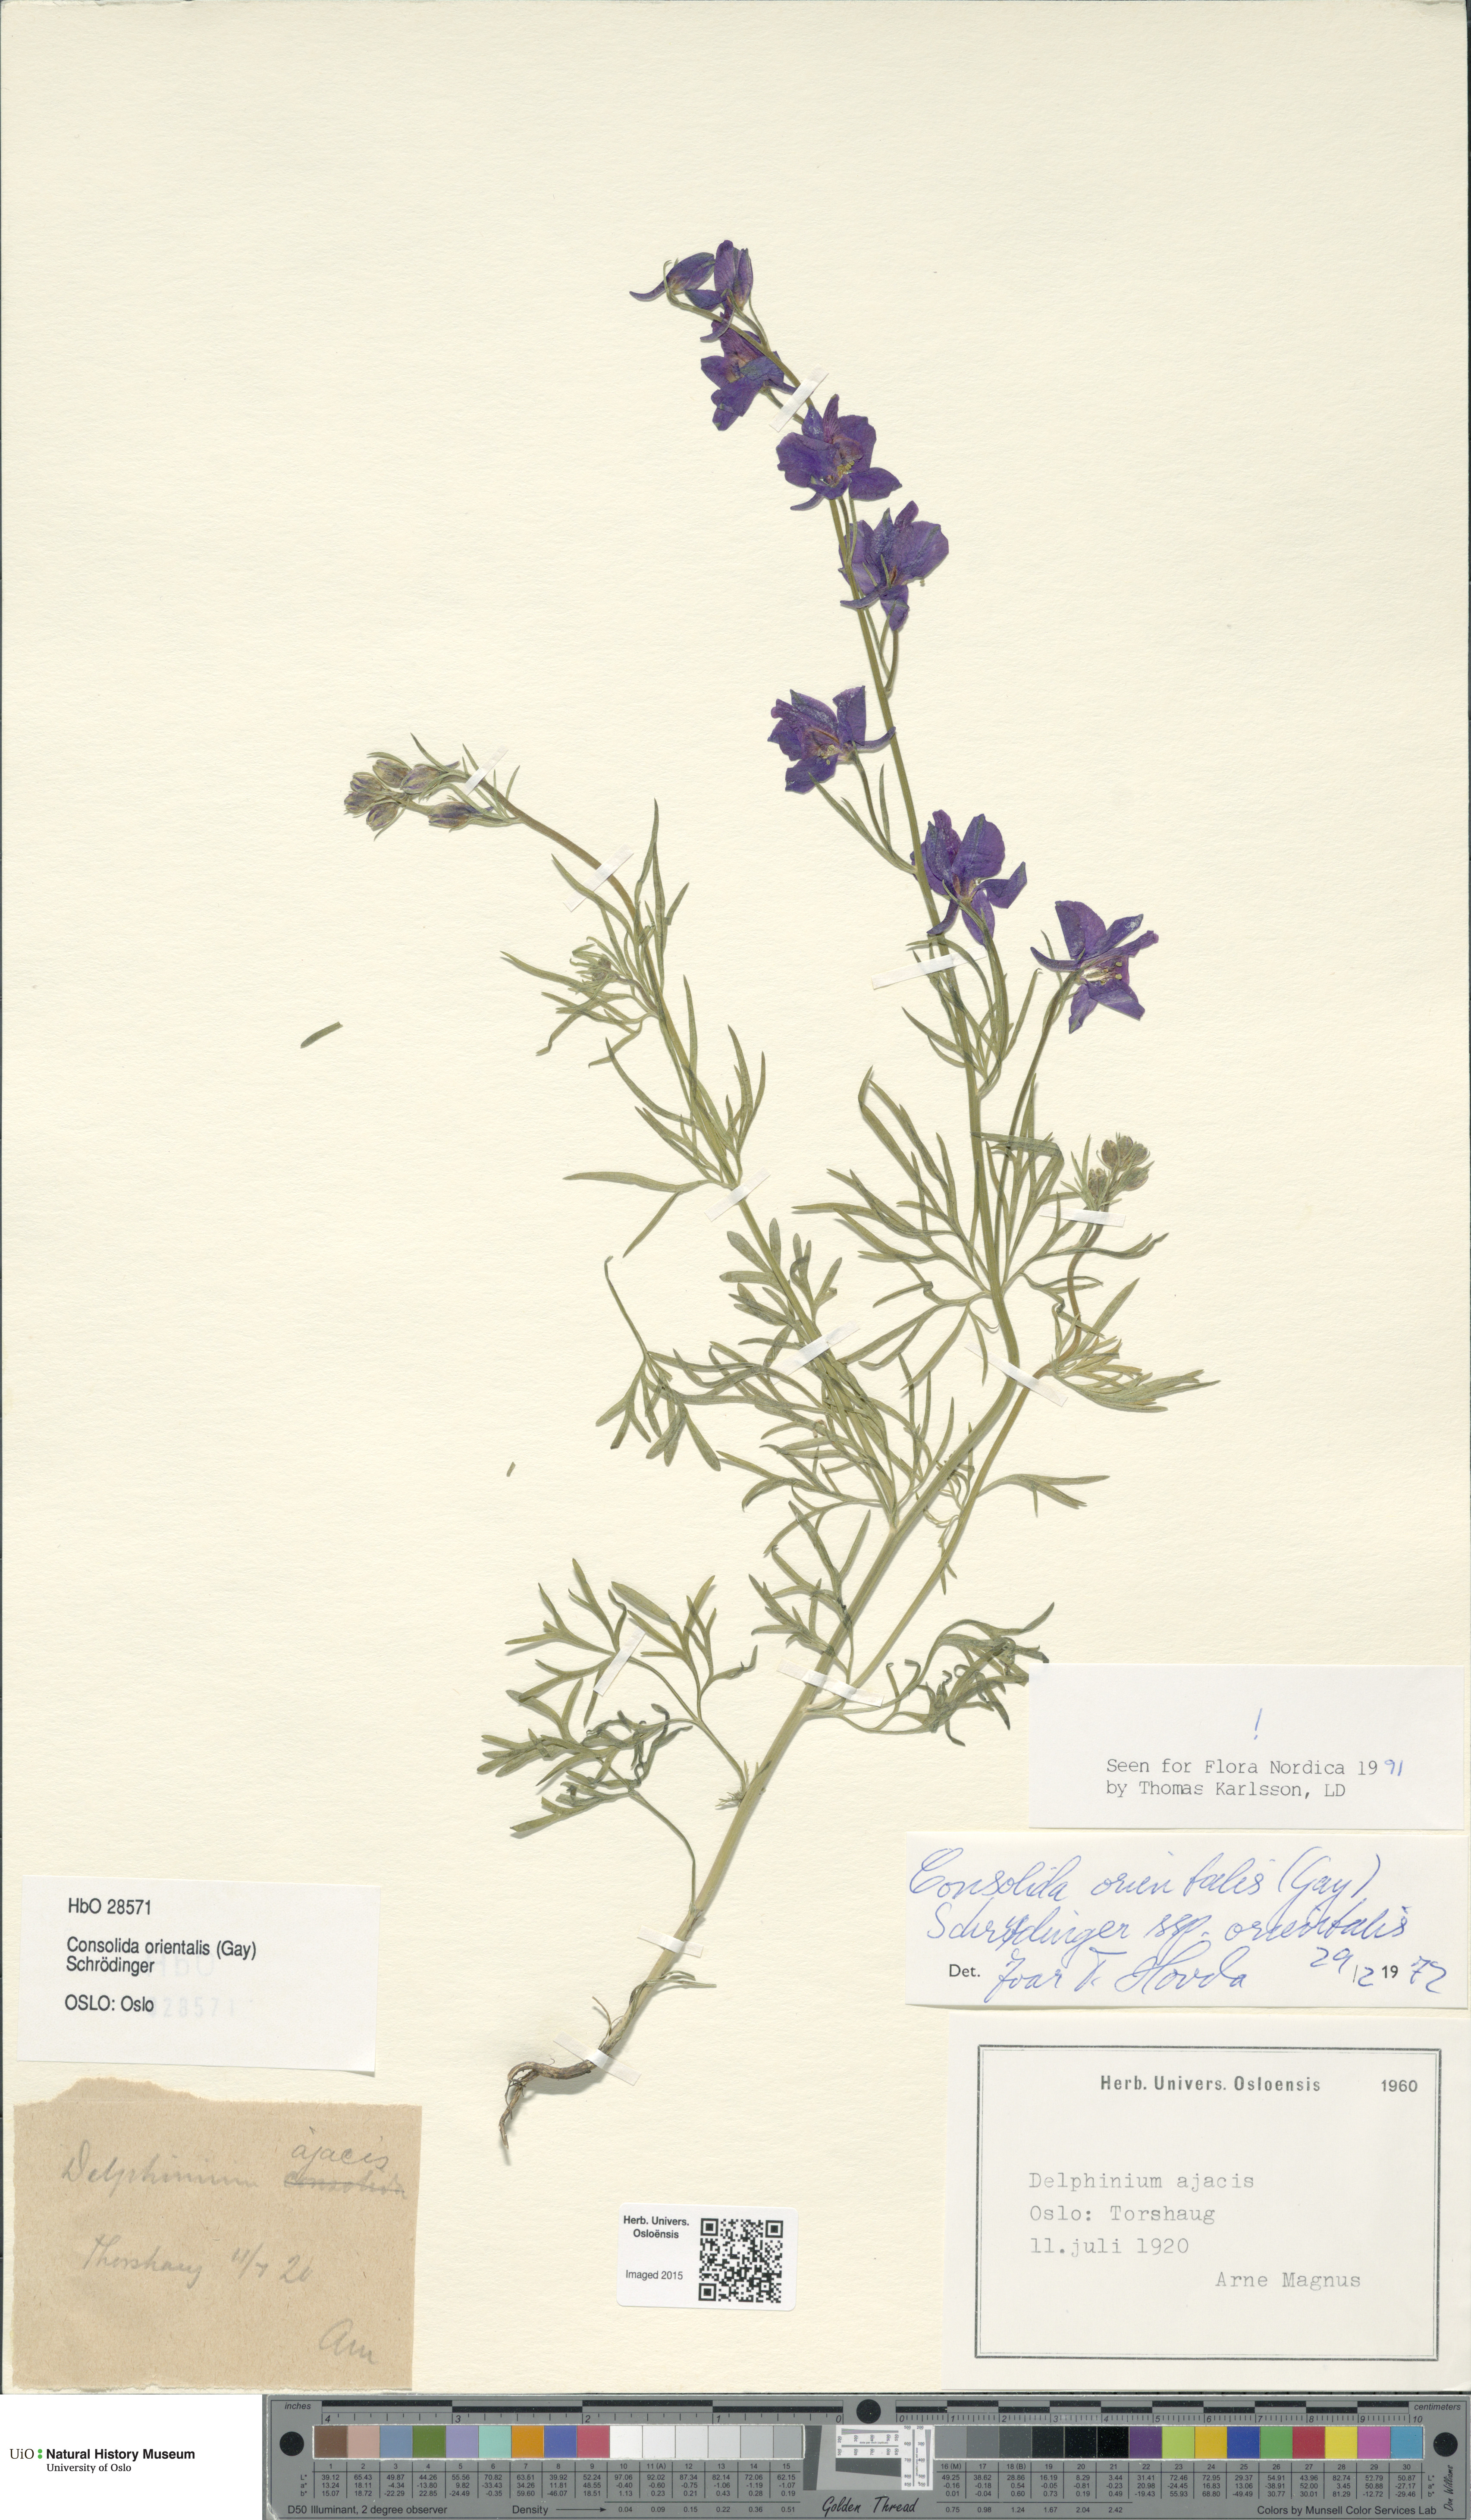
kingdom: Plantae
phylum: Tracheophyta
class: Magnoliopsida
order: Ranunculales
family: Ranunculaceae
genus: Delphinium
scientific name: Delphinium hispanicum
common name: Oriental knight's-spur
